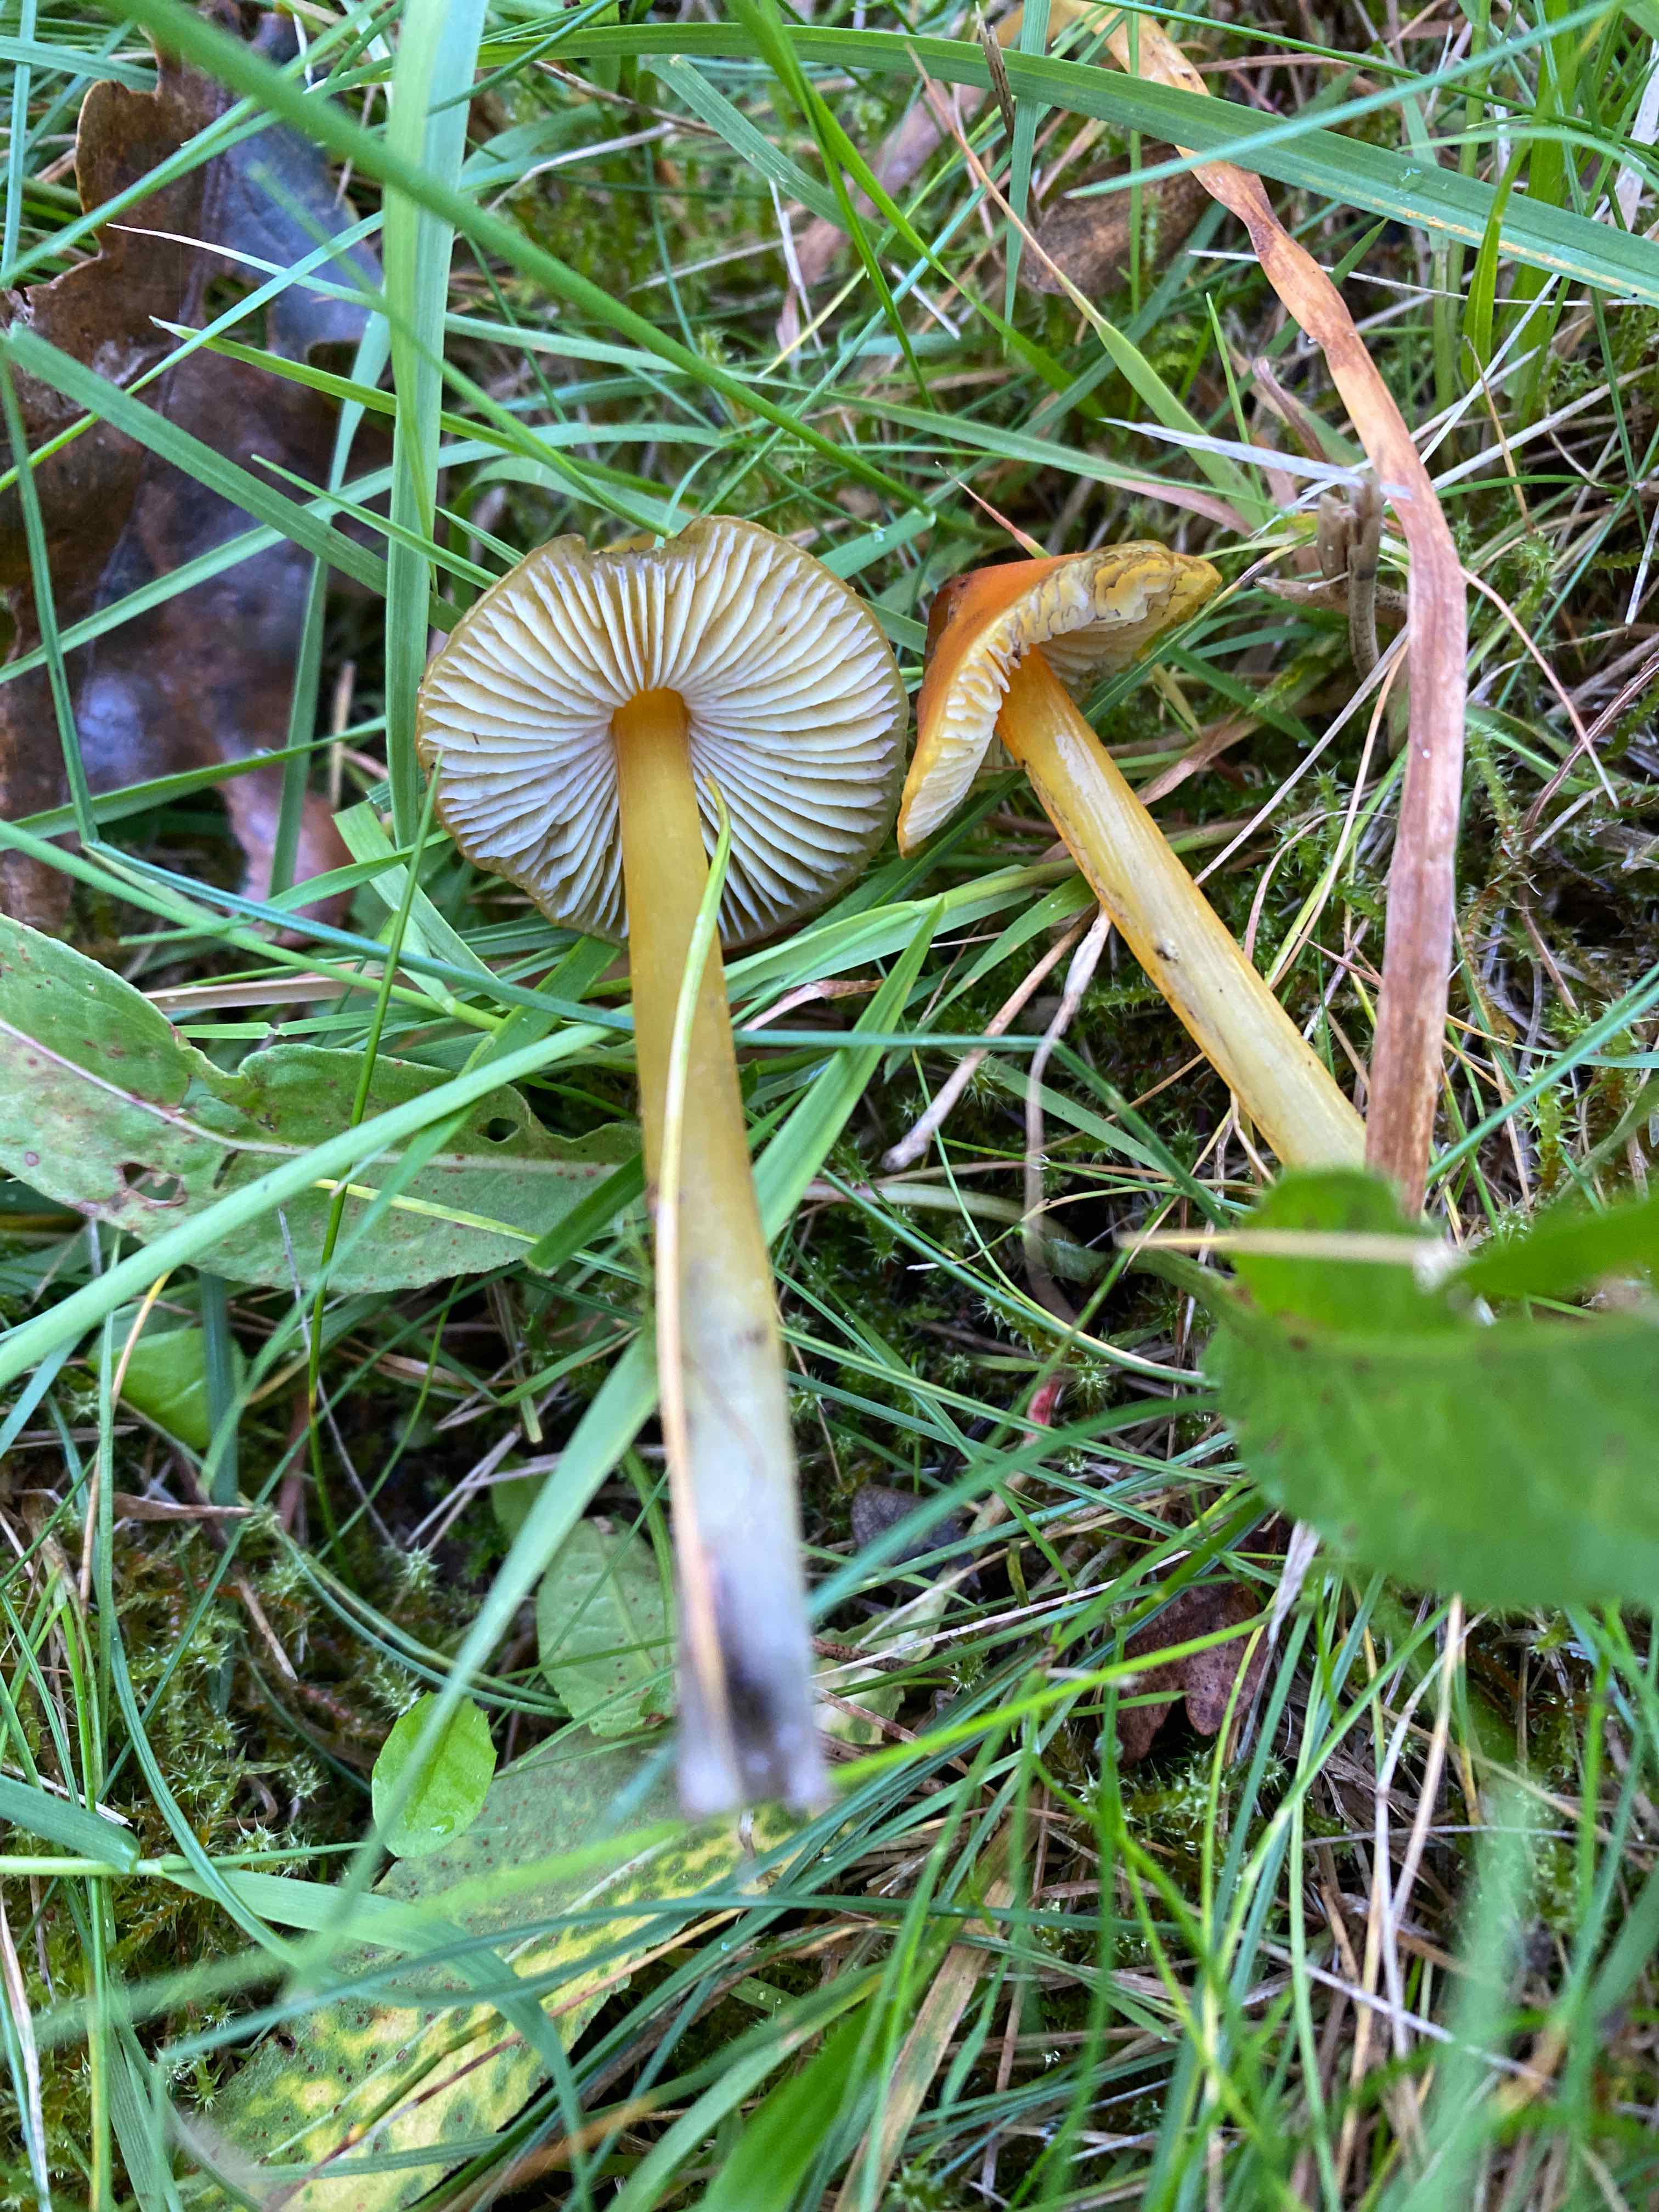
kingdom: Fungi
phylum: Basidiomycota
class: Agaricomycetes
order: Agaricales
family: Hygrophoraceae
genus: Hygrocybe
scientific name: Hygrocybe conica
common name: kegle-vokshat
